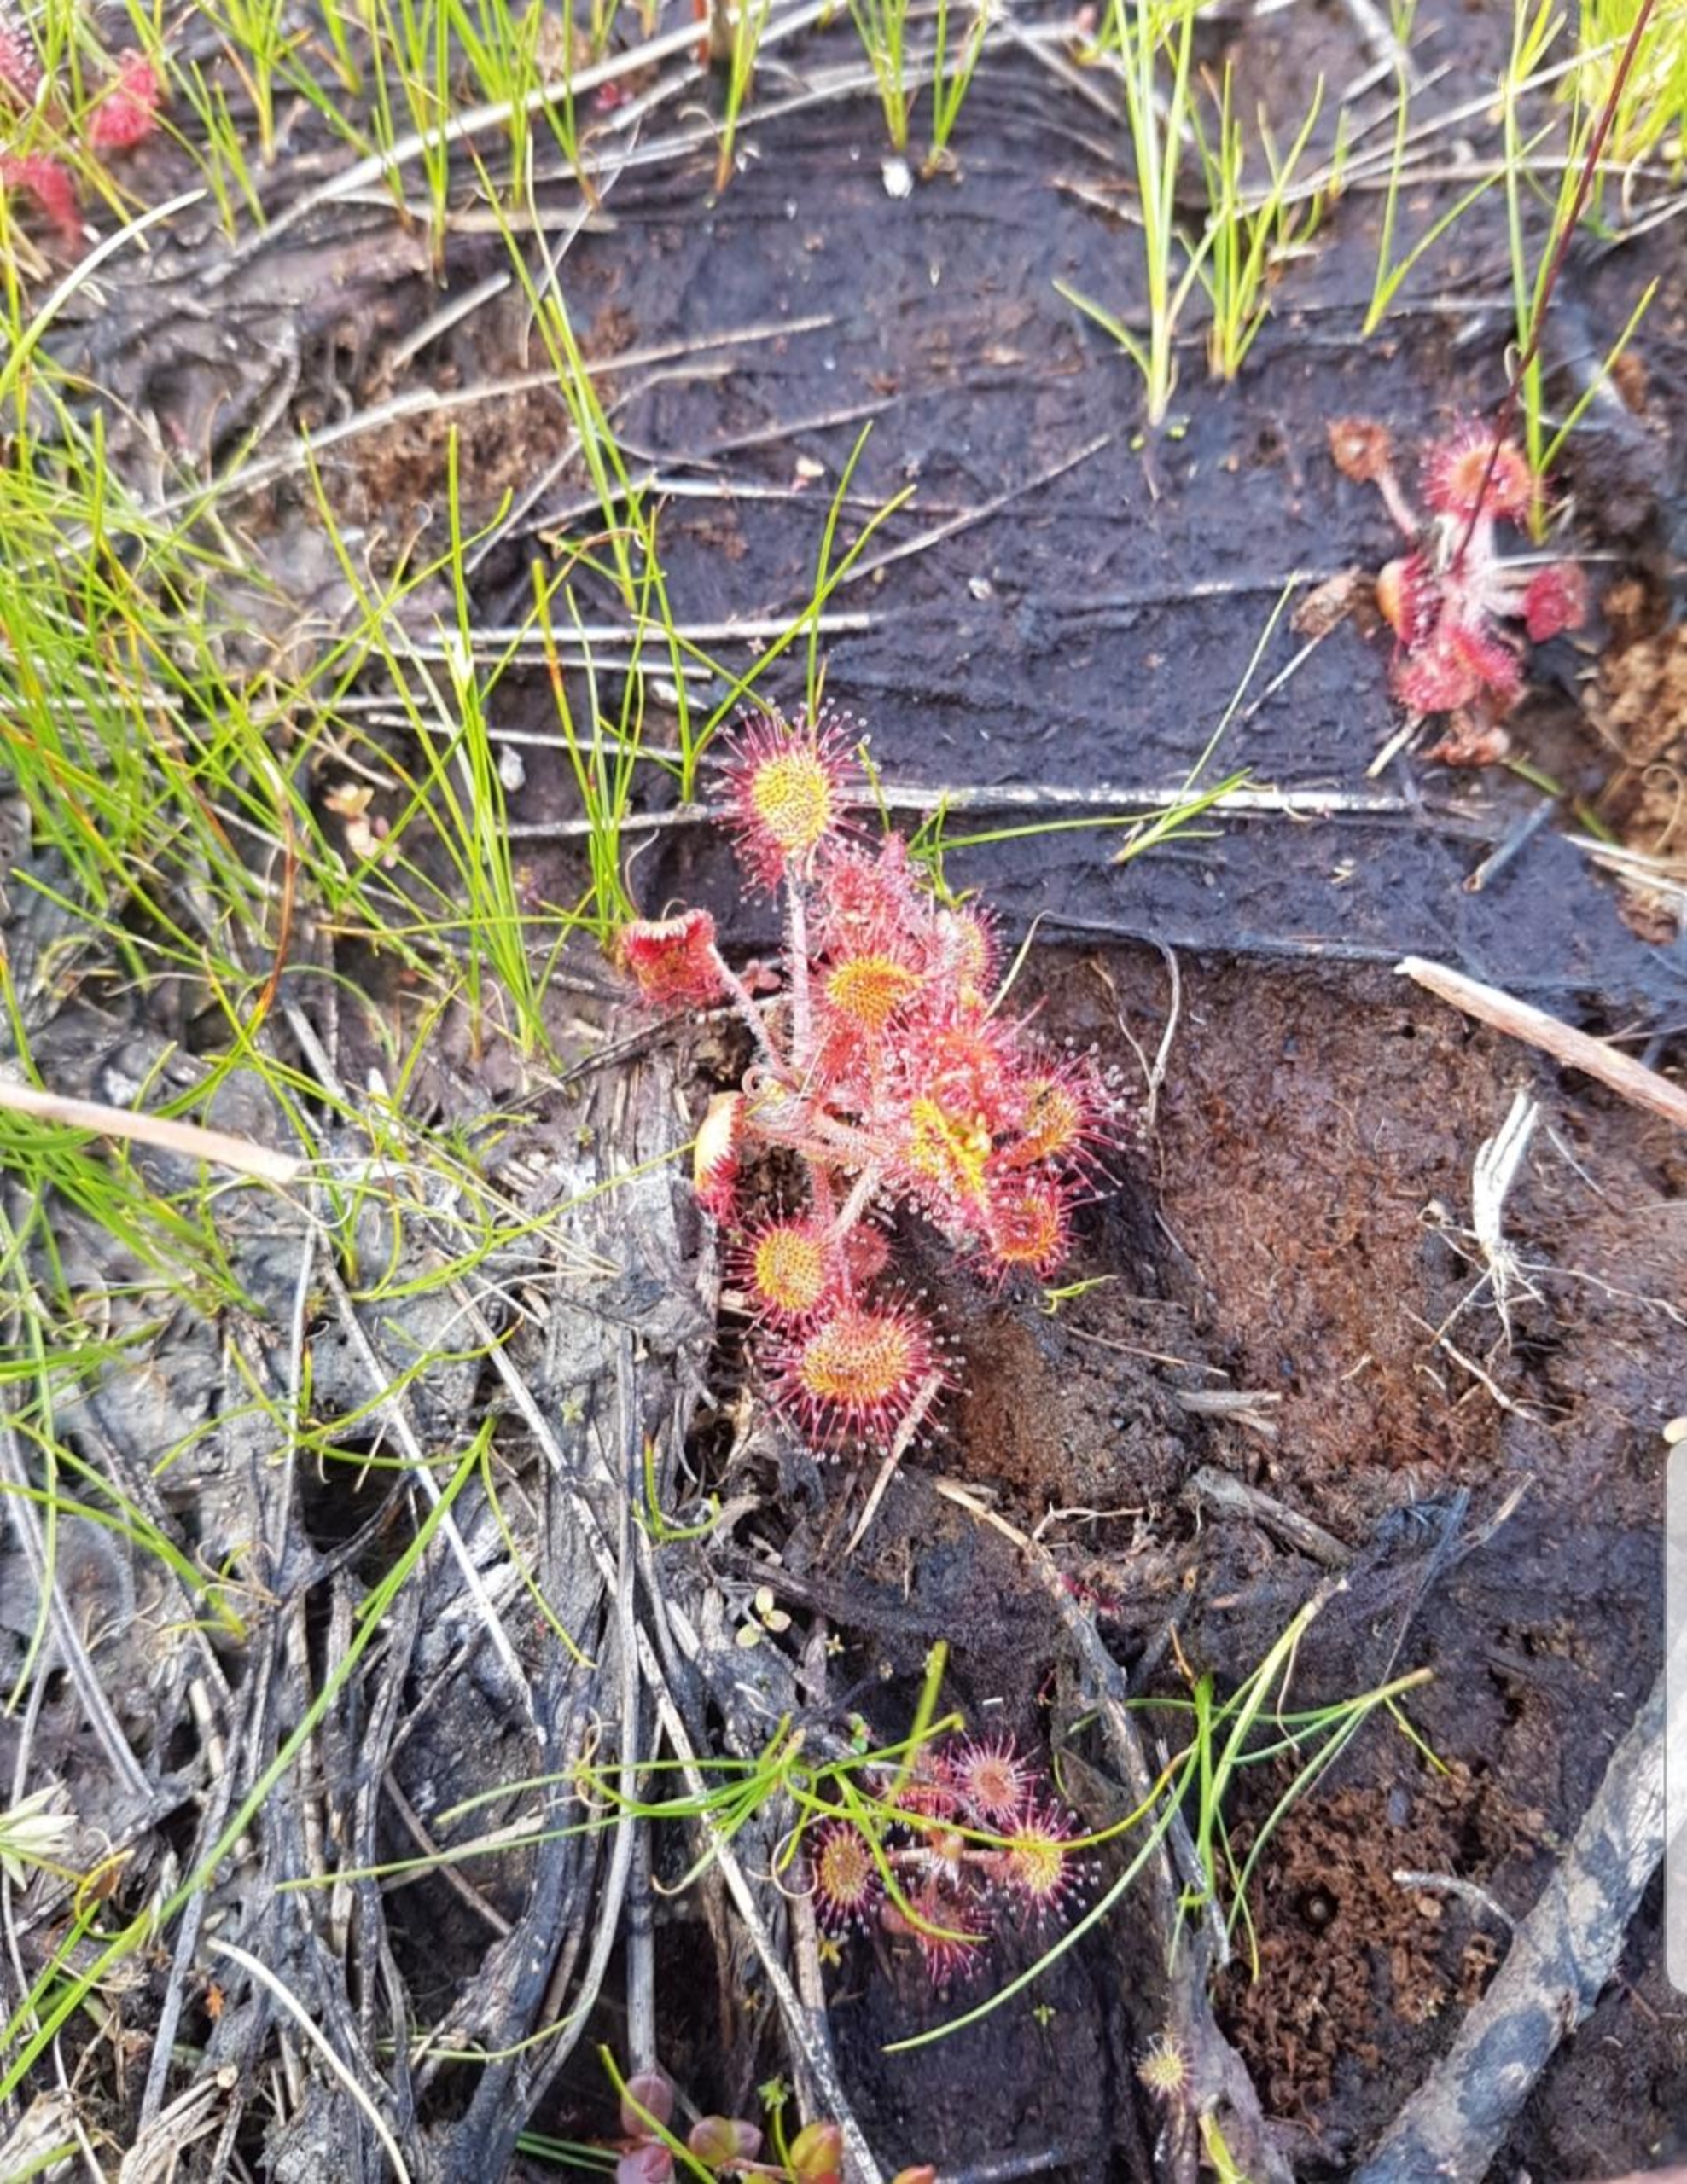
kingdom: Plantae
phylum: Tracheophyta
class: Magnoliopsida
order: Caryophyllales
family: Droseraceae
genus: Drosera
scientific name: Drosera rotundifolia
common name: Rundbladet soldug
